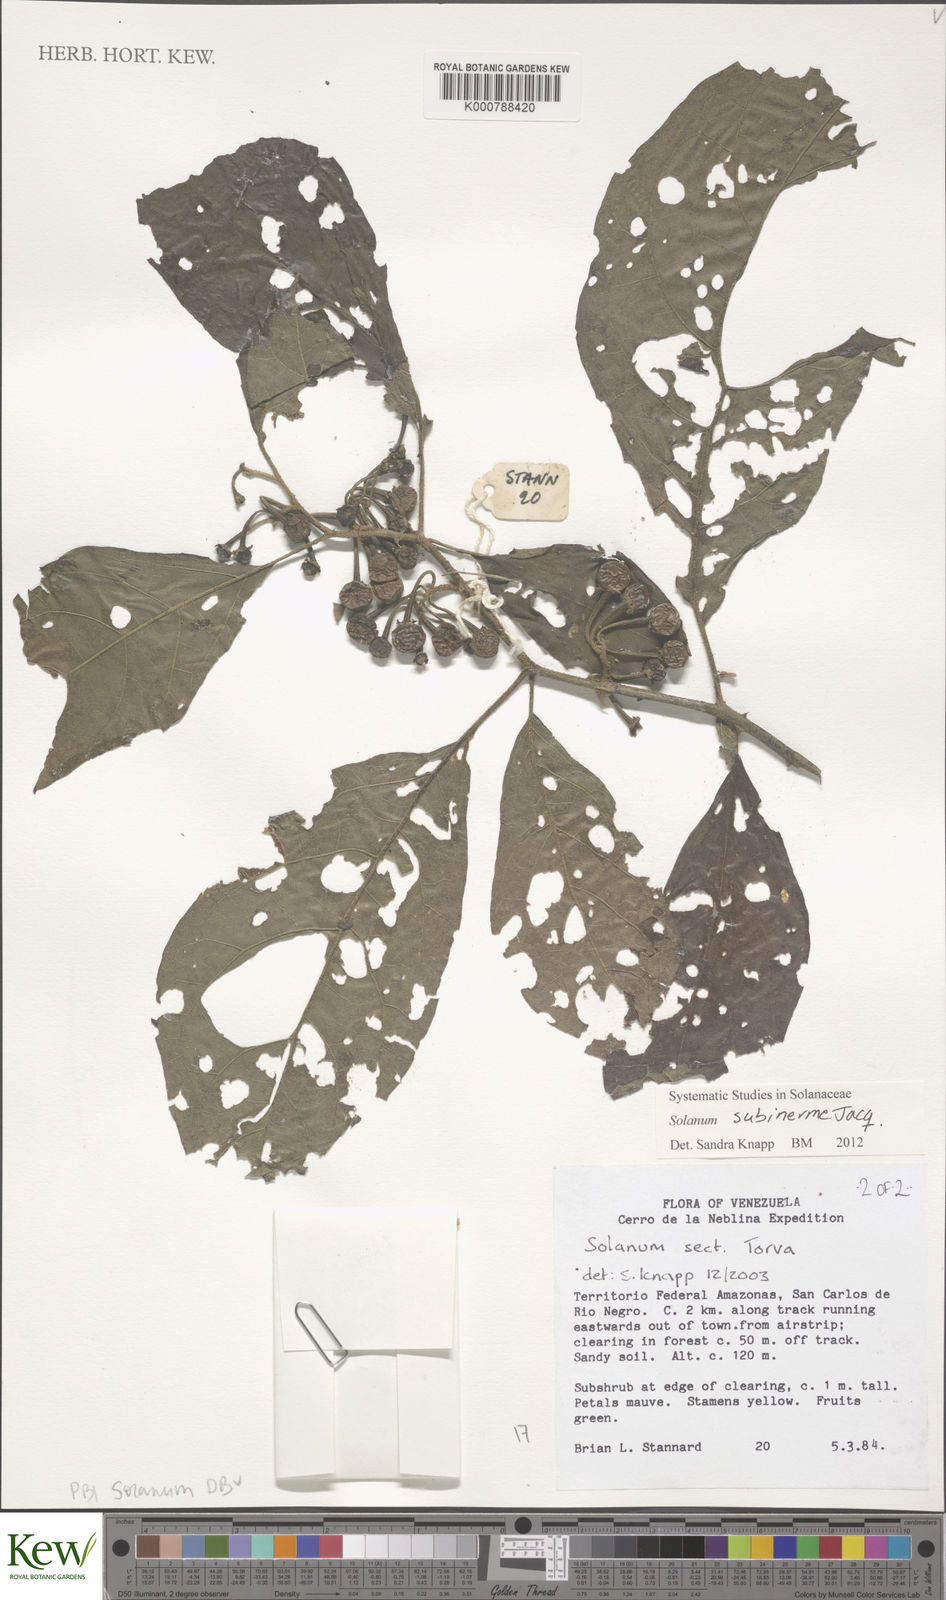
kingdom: Plantae
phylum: Tracheophyta
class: Magnoliopsida
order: Solanales
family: Solanaceae
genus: Solanum
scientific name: Solanum subinerme
